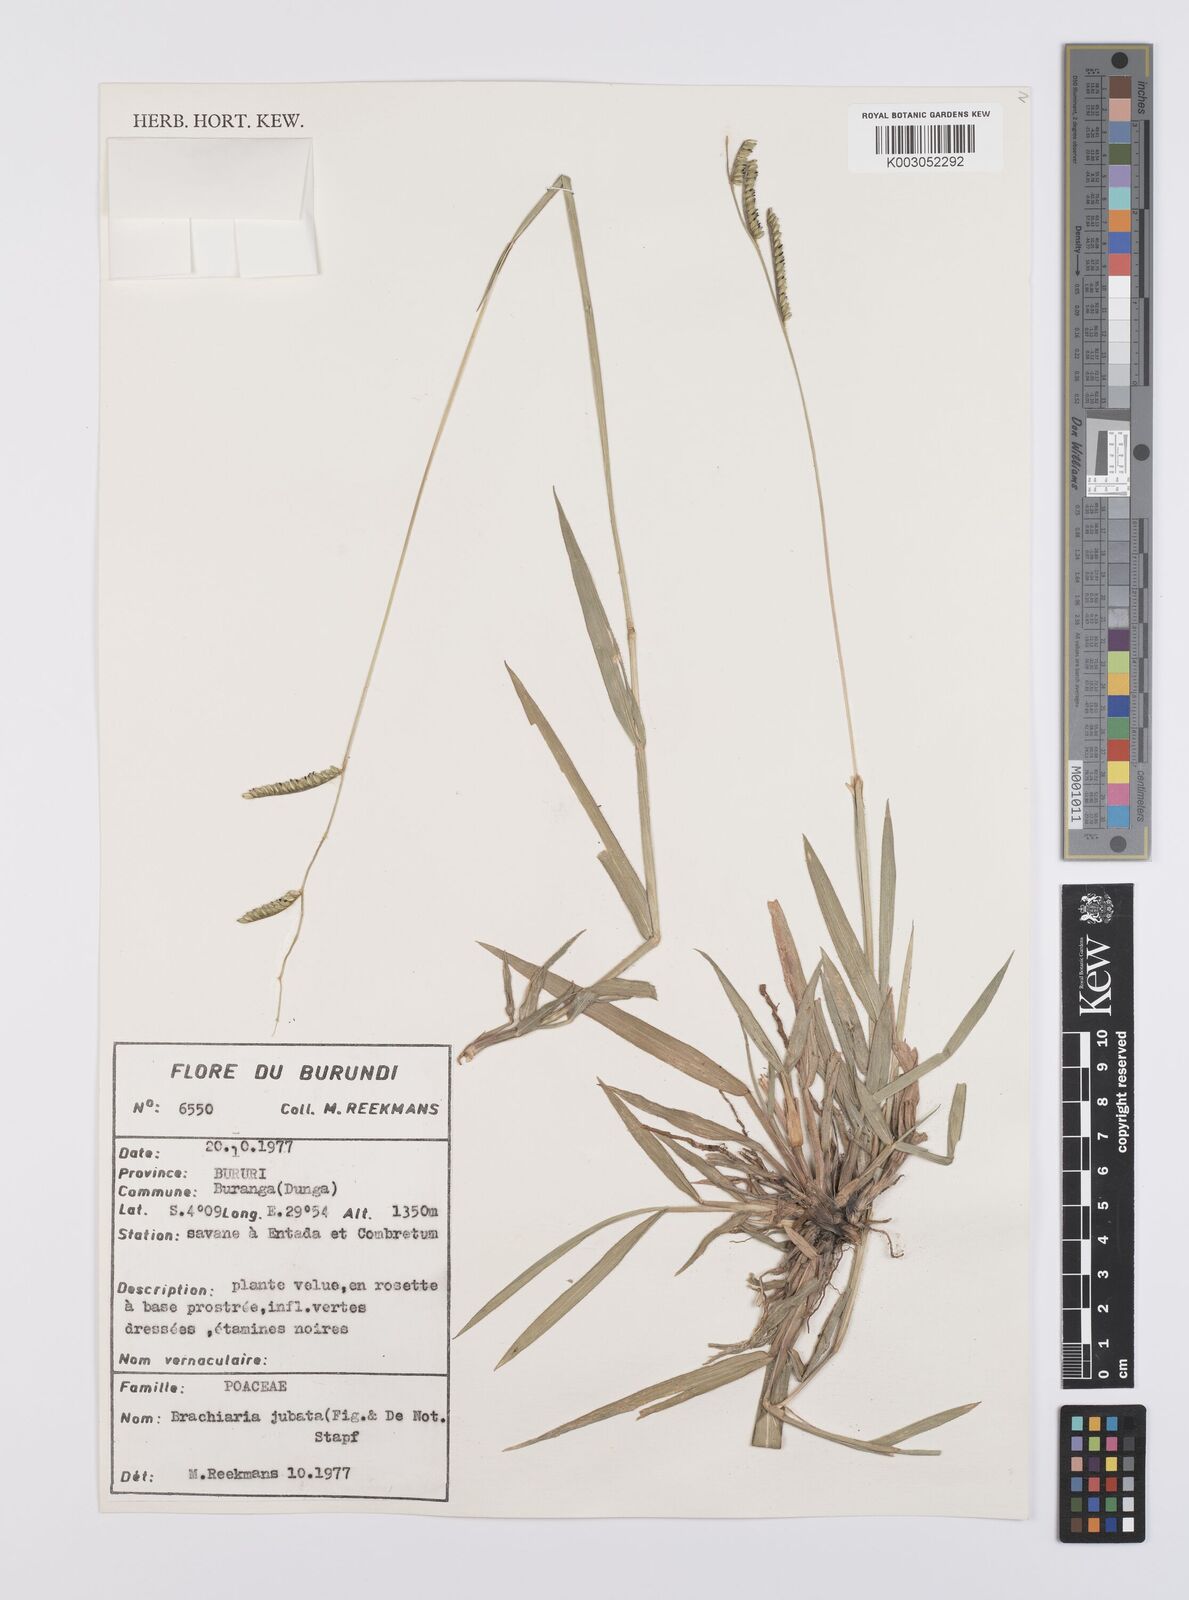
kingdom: Plantae
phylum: Tracheophyta
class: Liliopsida
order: Poales
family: Poaceae
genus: Urochloa
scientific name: Urochloa jubata
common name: Buffalograss
